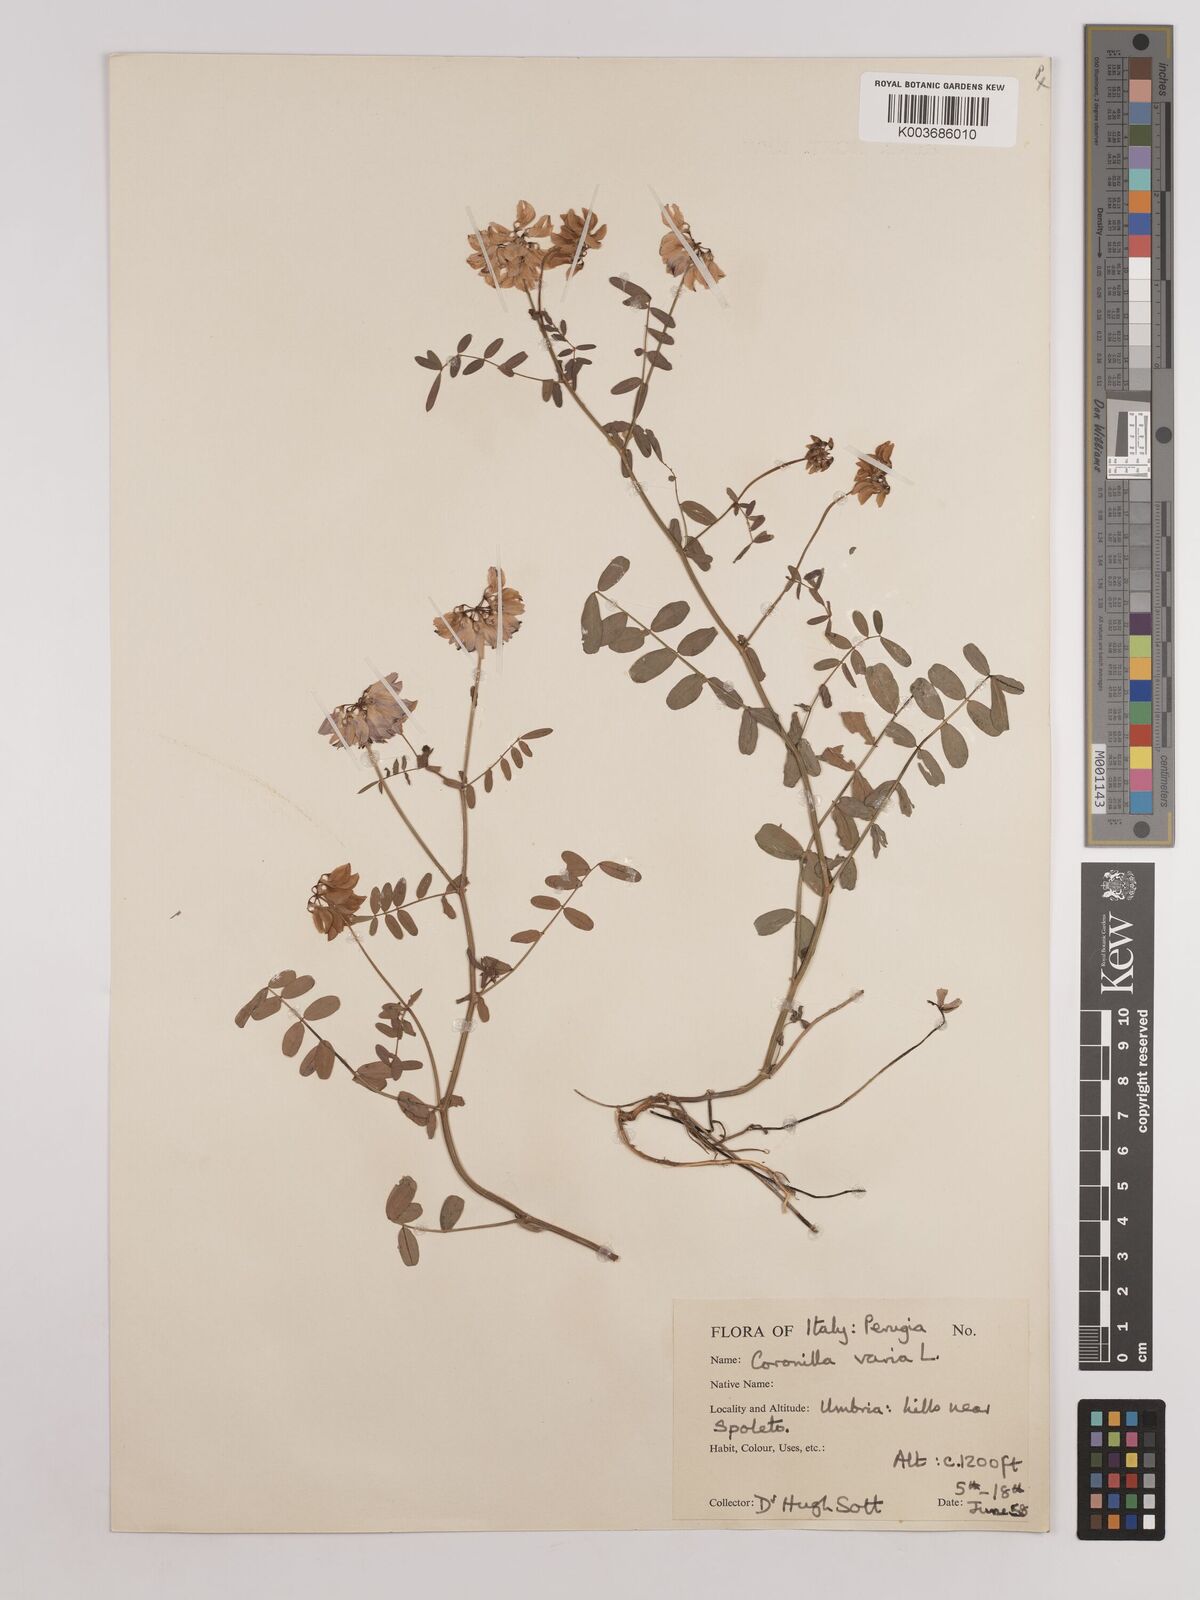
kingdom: Plantae
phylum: Tracheophyta
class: Magnoliopsida
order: Fabales
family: Fabaceae
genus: Coronilla
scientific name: Coronilla varia
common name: Crownvetch
